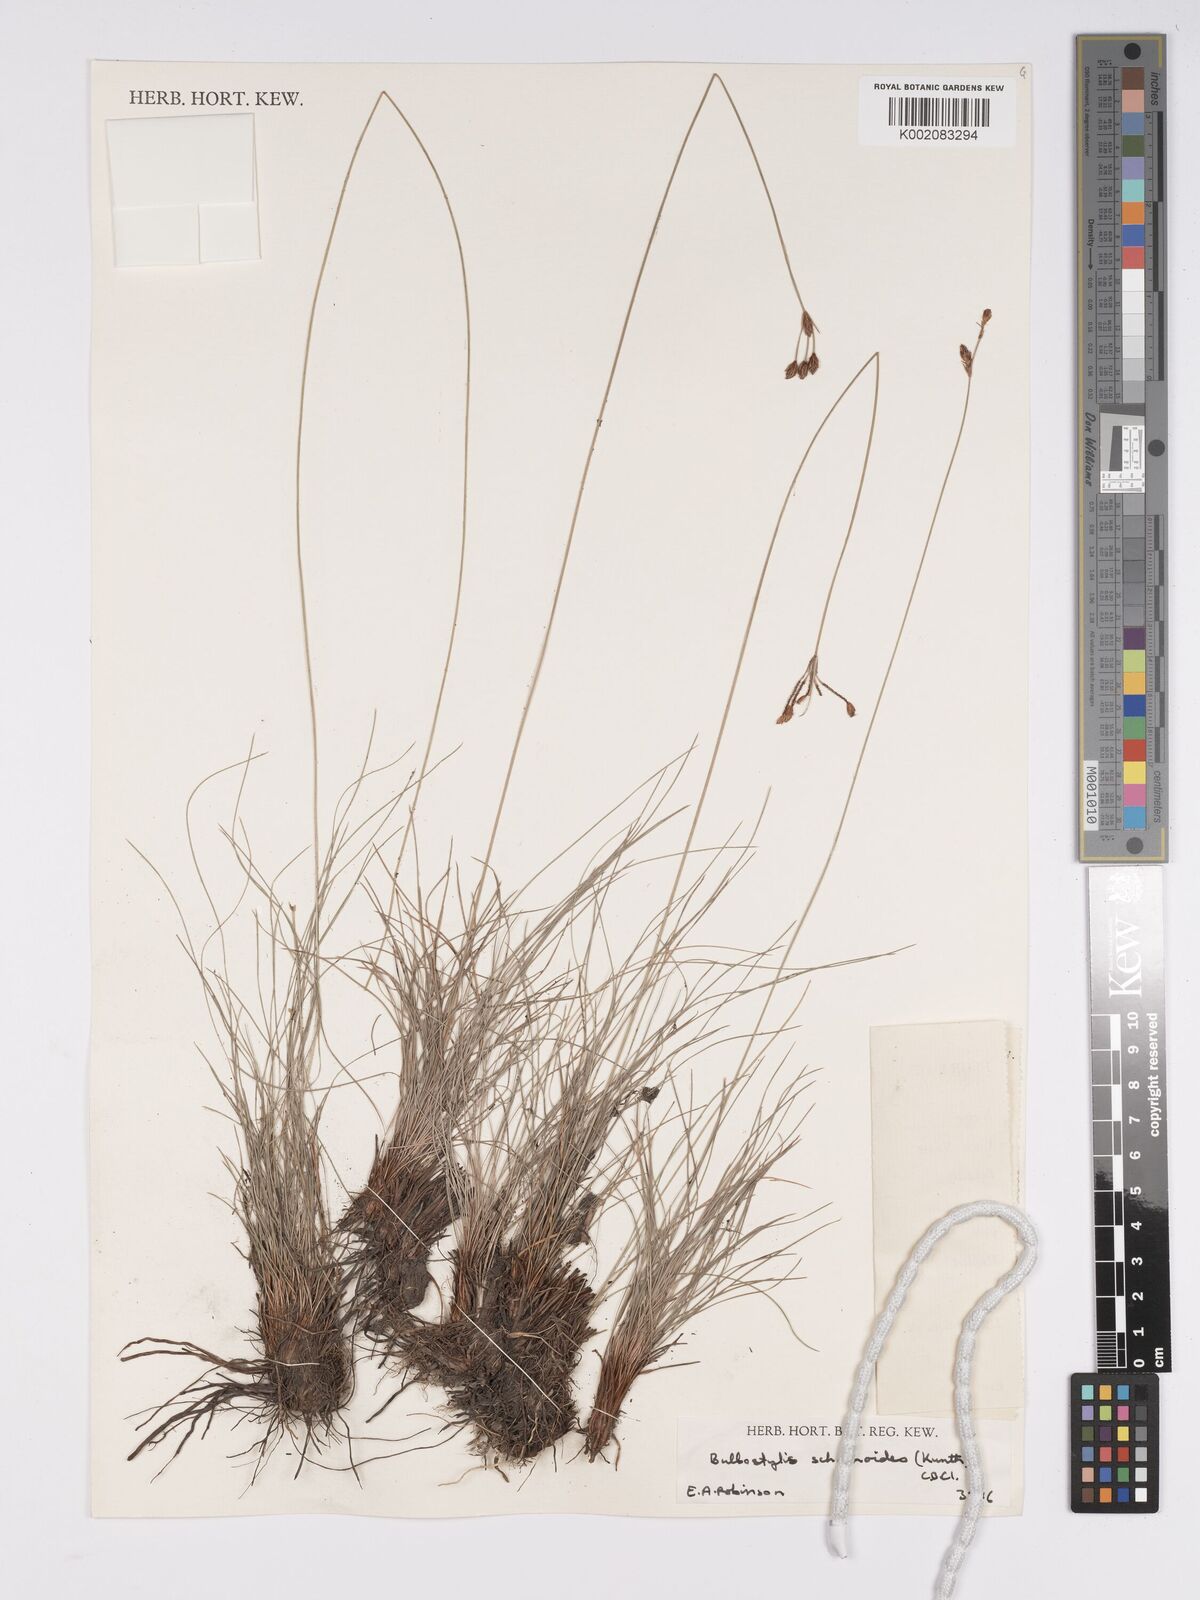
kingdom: Plantae
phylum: Tracheophyta
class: Liliopsida
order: Poales
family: Cyperaceae
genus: Bulbostylis
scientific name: Bulbostylis schoenoides
